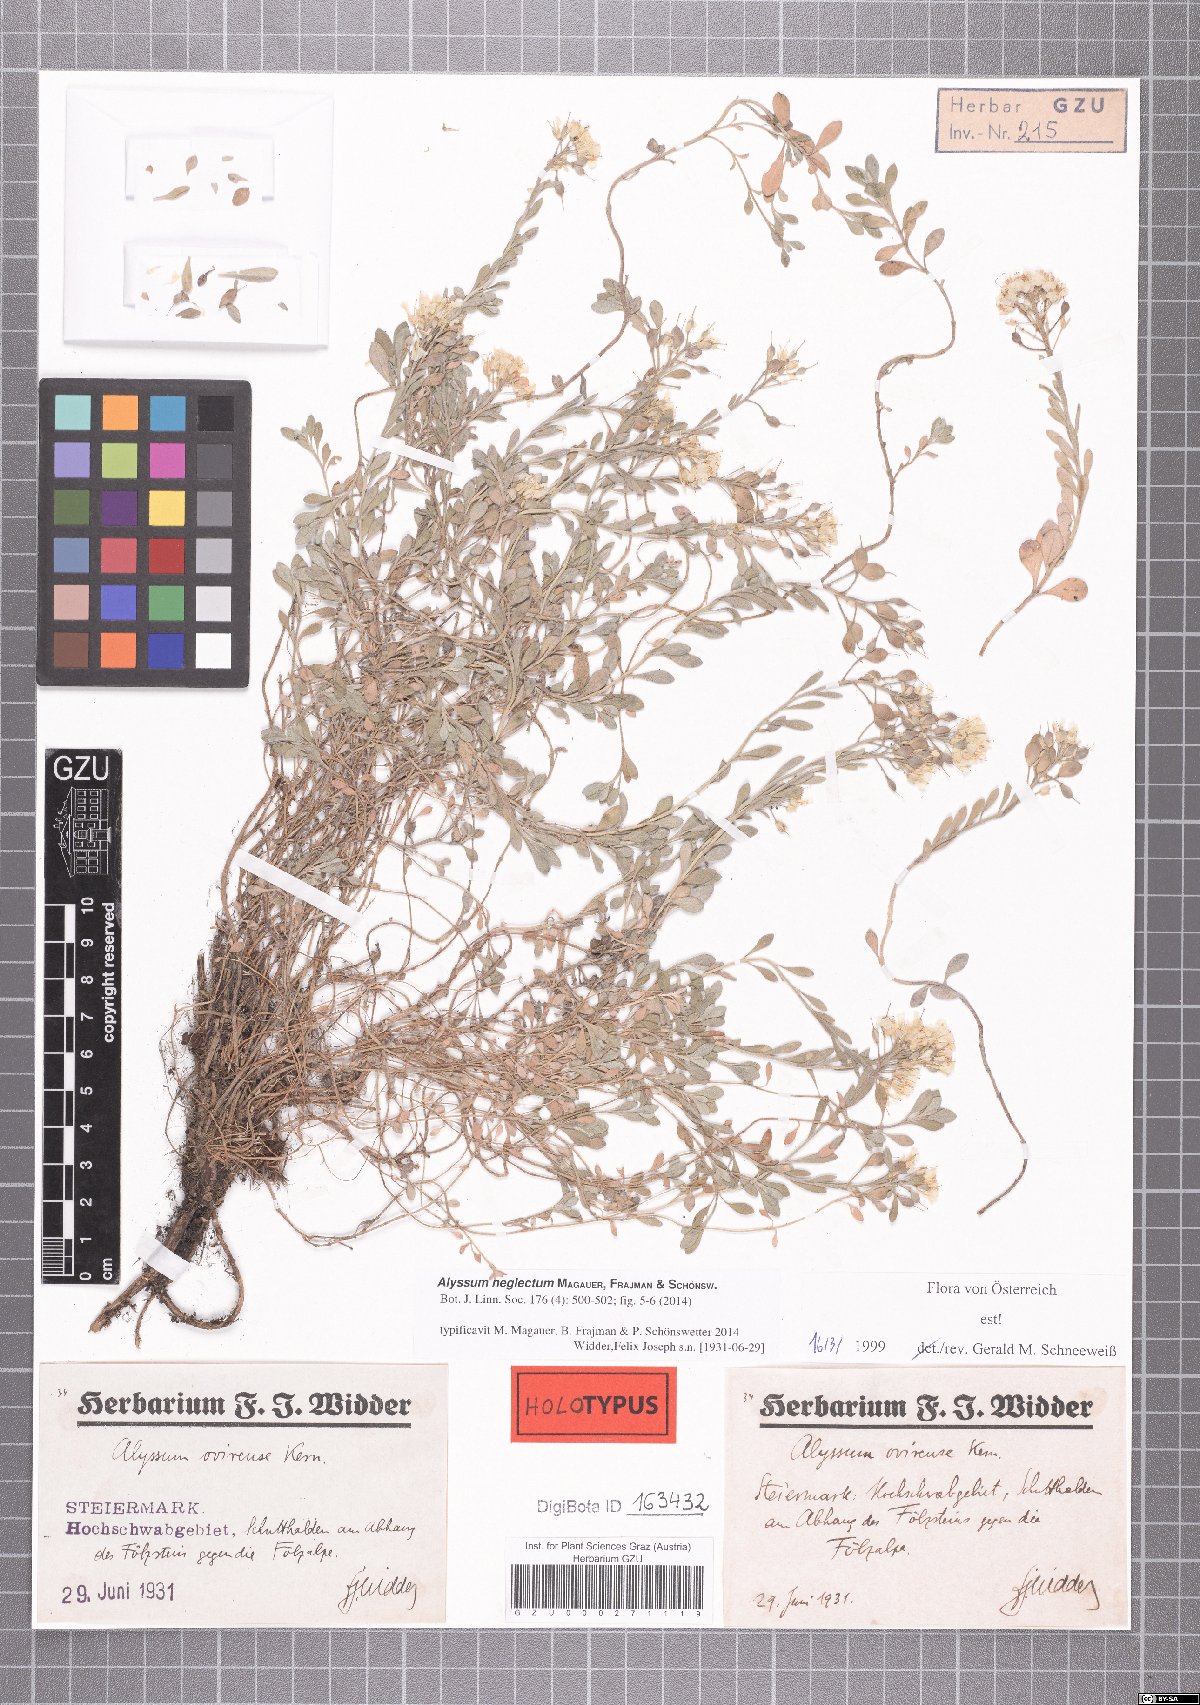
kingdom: Plantae
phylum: Tracheophyta
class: Magnoliopsida
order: Brassicales
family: Brassicaceae
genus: Alyssum
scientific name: Alyssum neglectum
